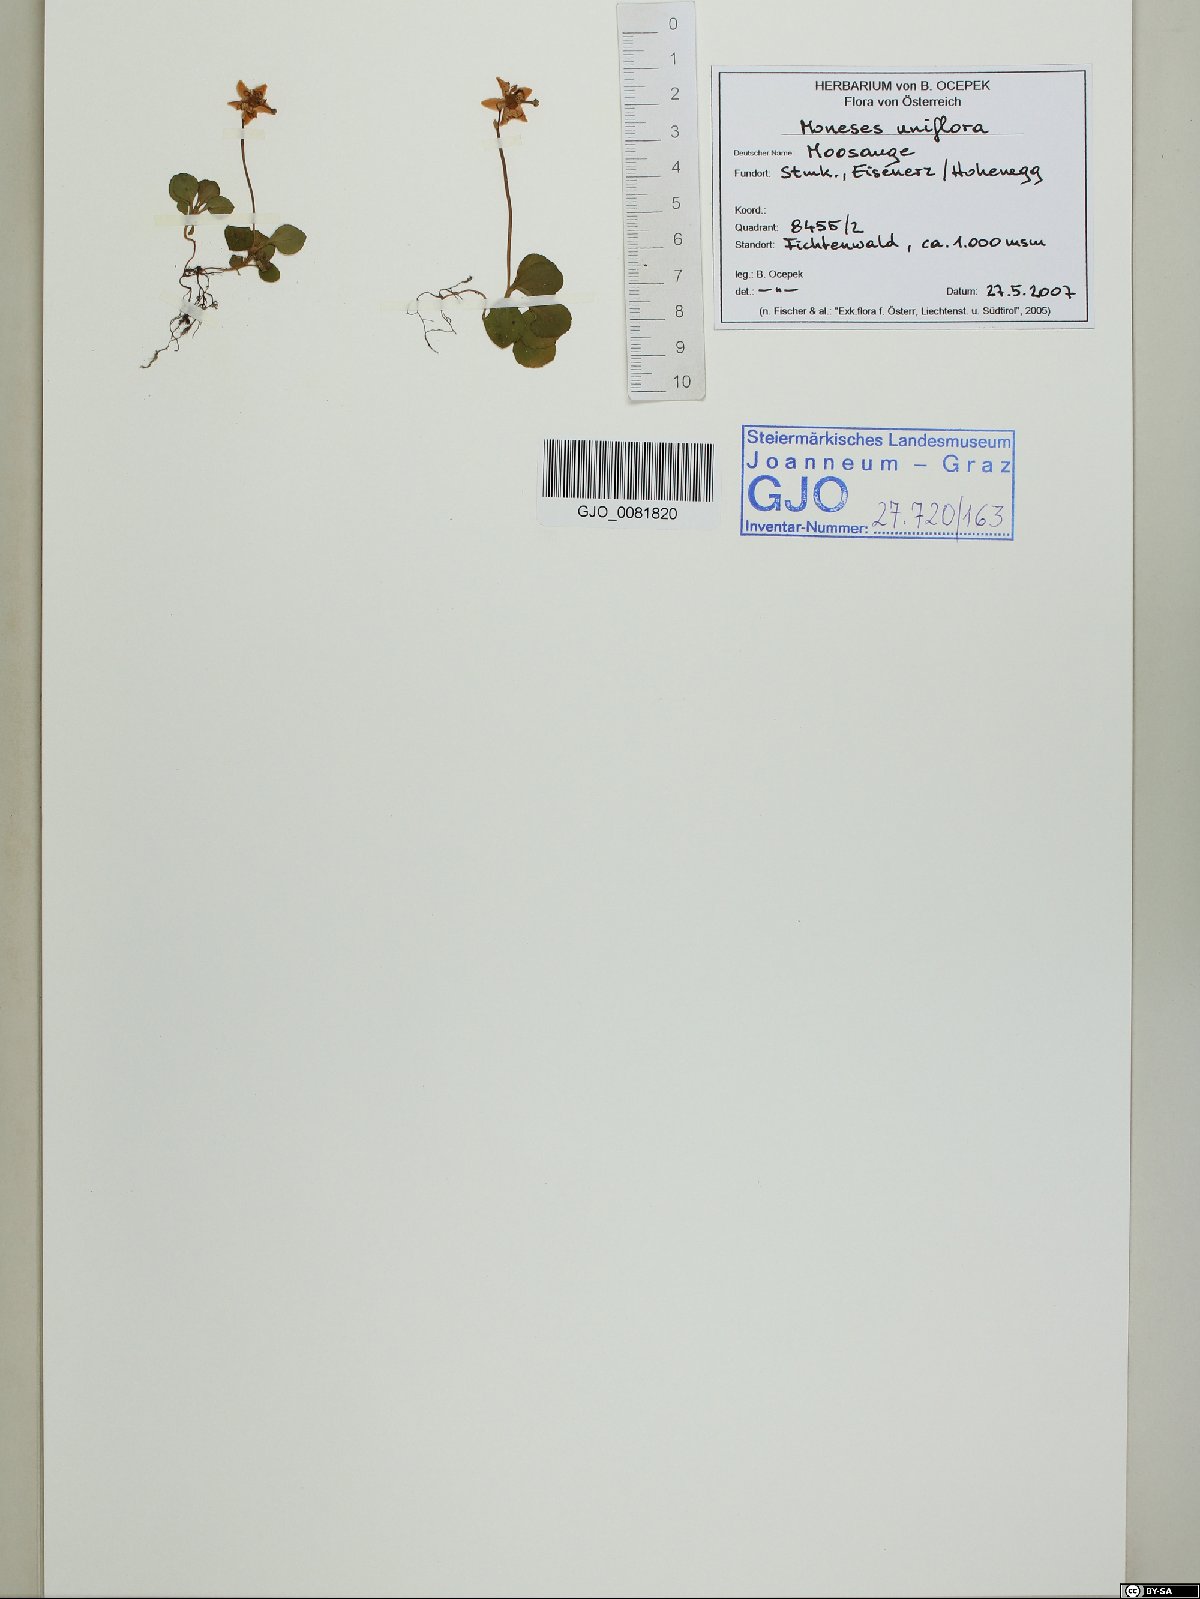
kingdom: Plantae
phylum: Tracheophyta
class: Magnoliopsida
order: Ericales
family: Ericaceae
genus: Moneses
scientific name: Moneses uniflora
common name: One-flowered wintergreen
